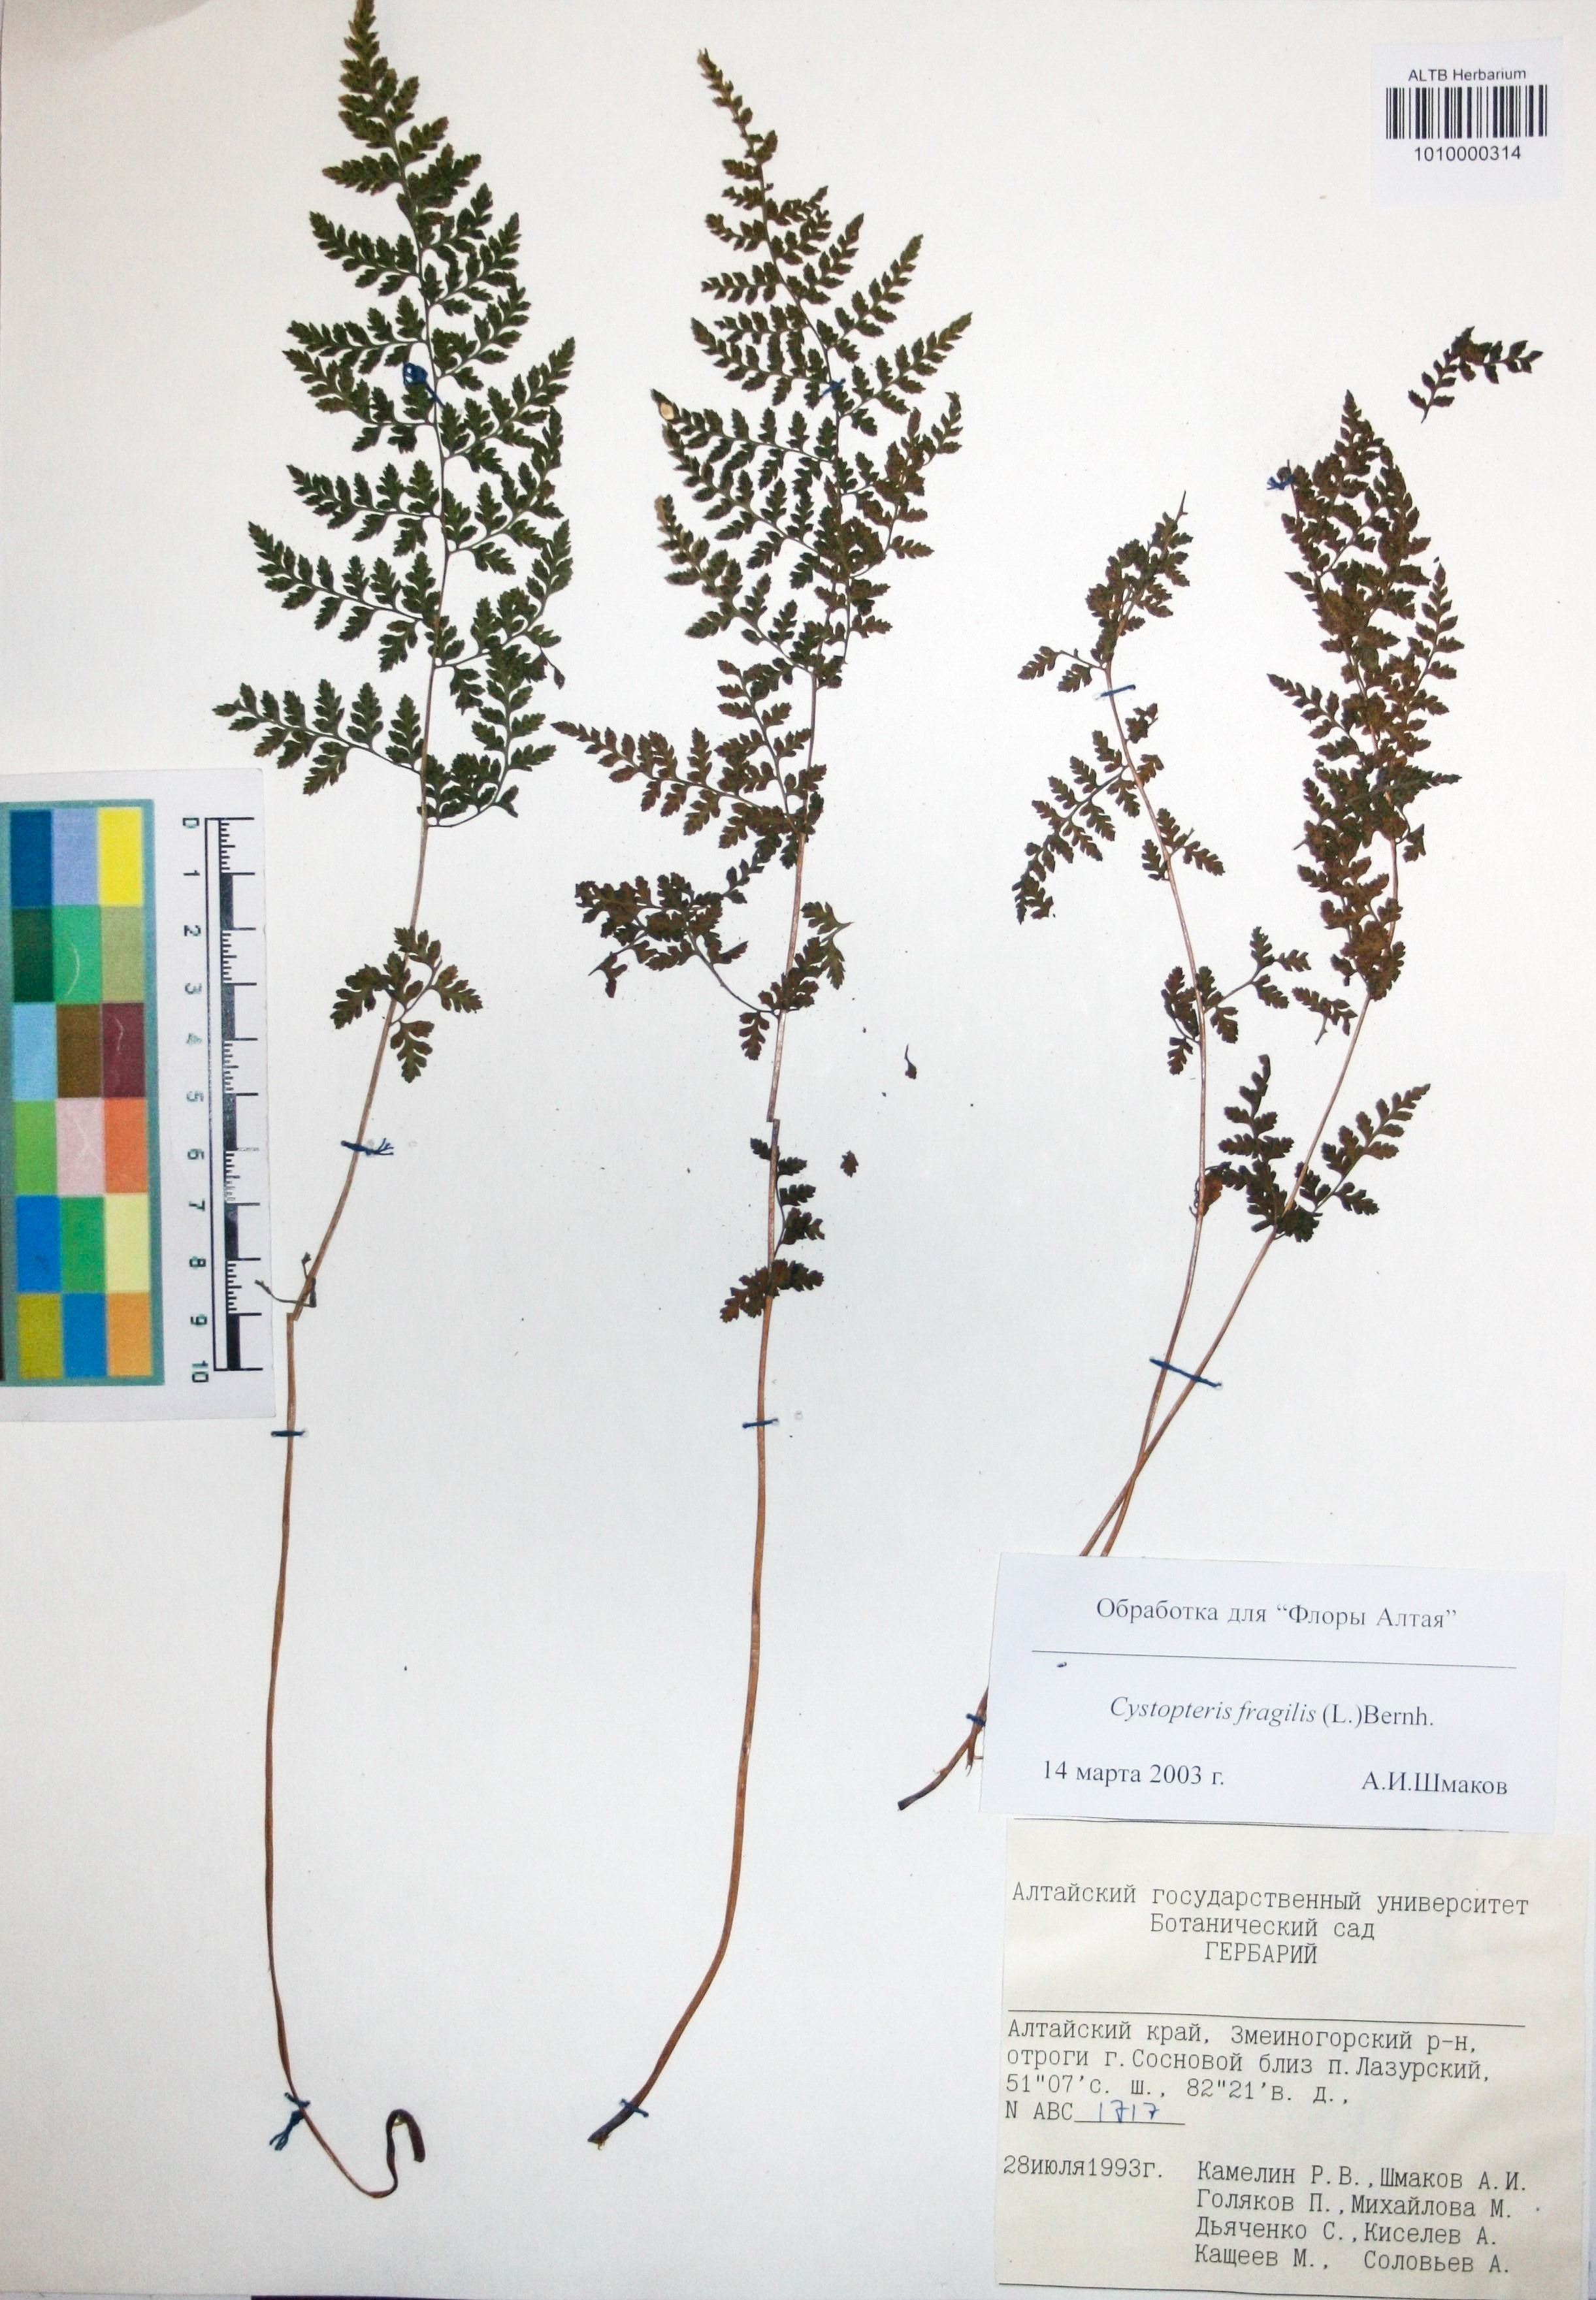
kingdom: Plantae
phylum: Tracheophyta
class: Polypodiopsida
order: Polypodiales
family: Cystopteridaceae
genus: Cystopteris
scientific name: Cystopteris fragilis
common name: Brittle bladder fern
